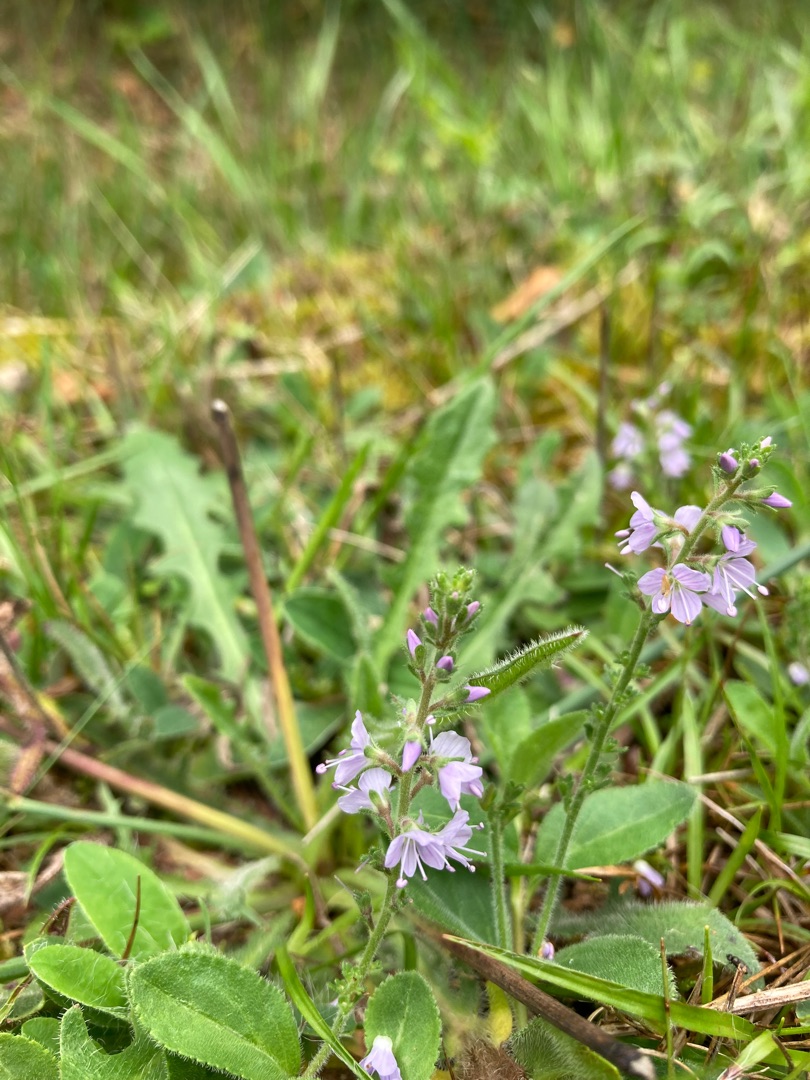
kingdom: Plantae
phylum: Tracheophyta
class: Magnoliopsida
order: Lamiales
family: Plantaginaceae
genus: Veronica
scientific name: Veronica officinalis
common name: Læge-ærenpris
